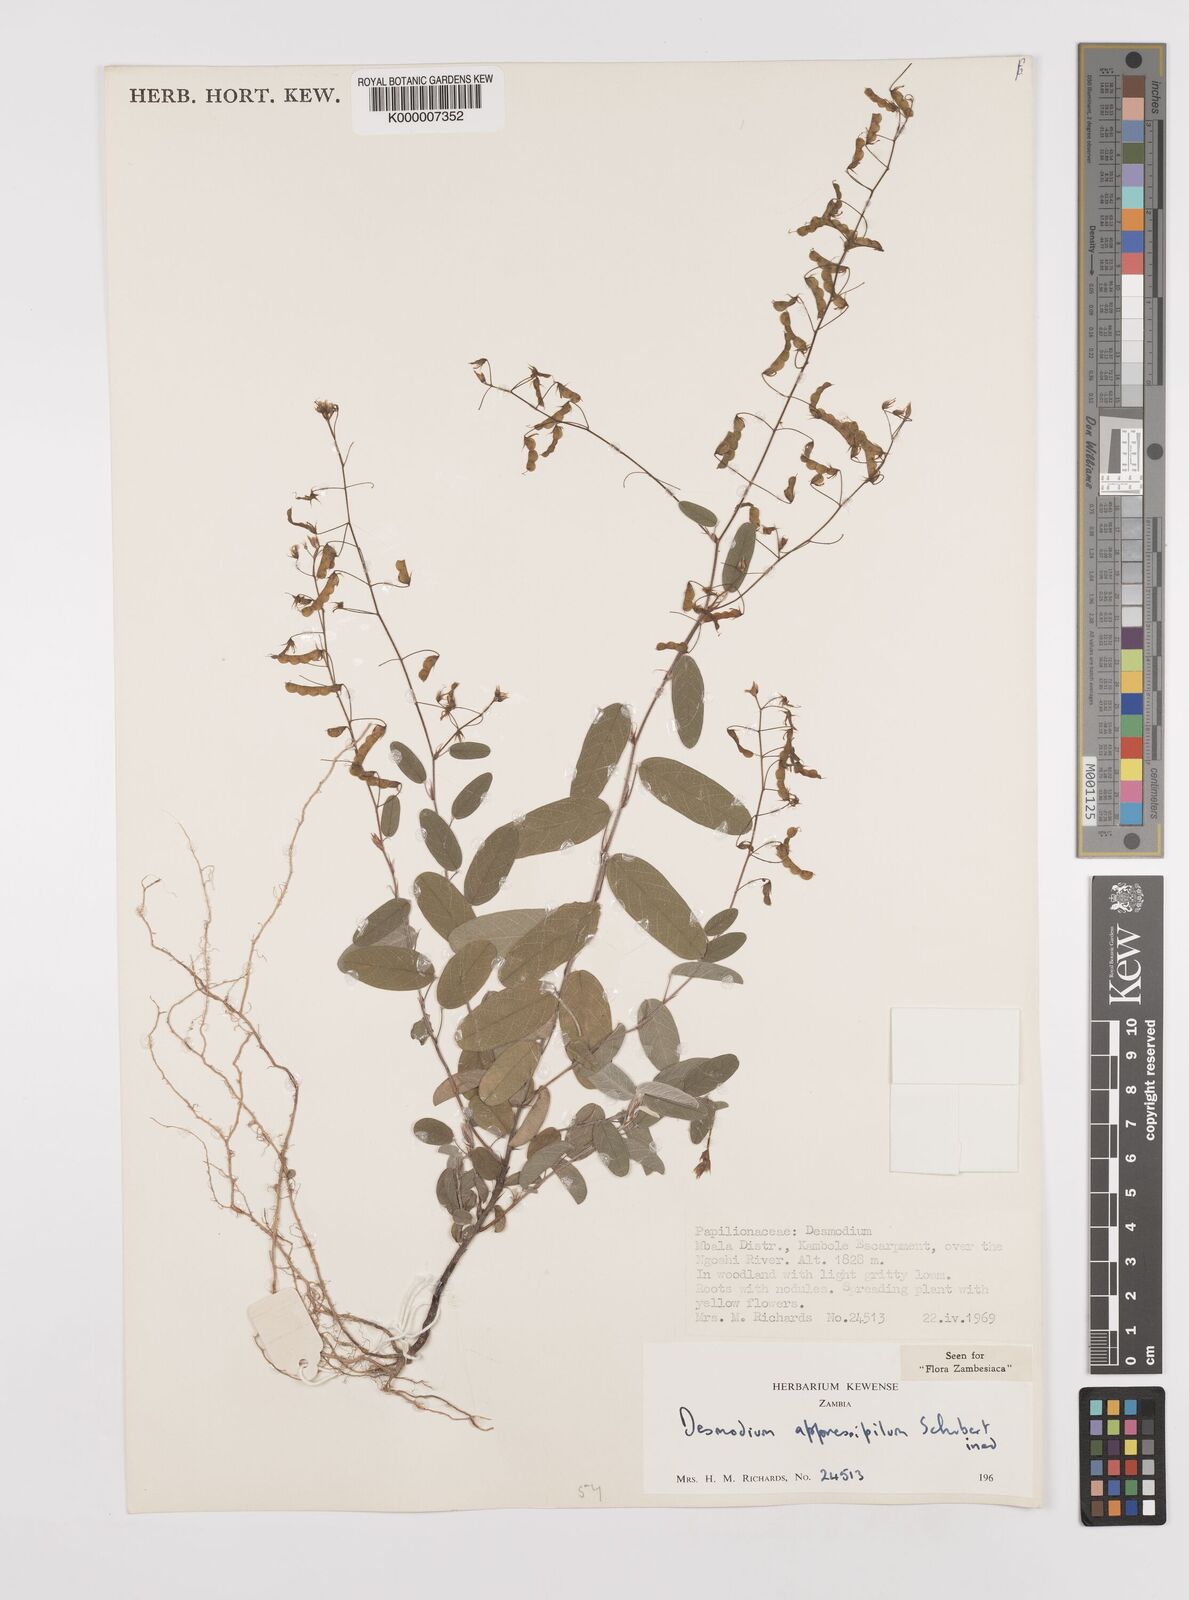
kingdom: Plantae
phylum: Tracheophyta
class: Magnoliopsida
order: Fabales
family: Fabaceae
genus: Grona
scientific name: Grona appressipila
